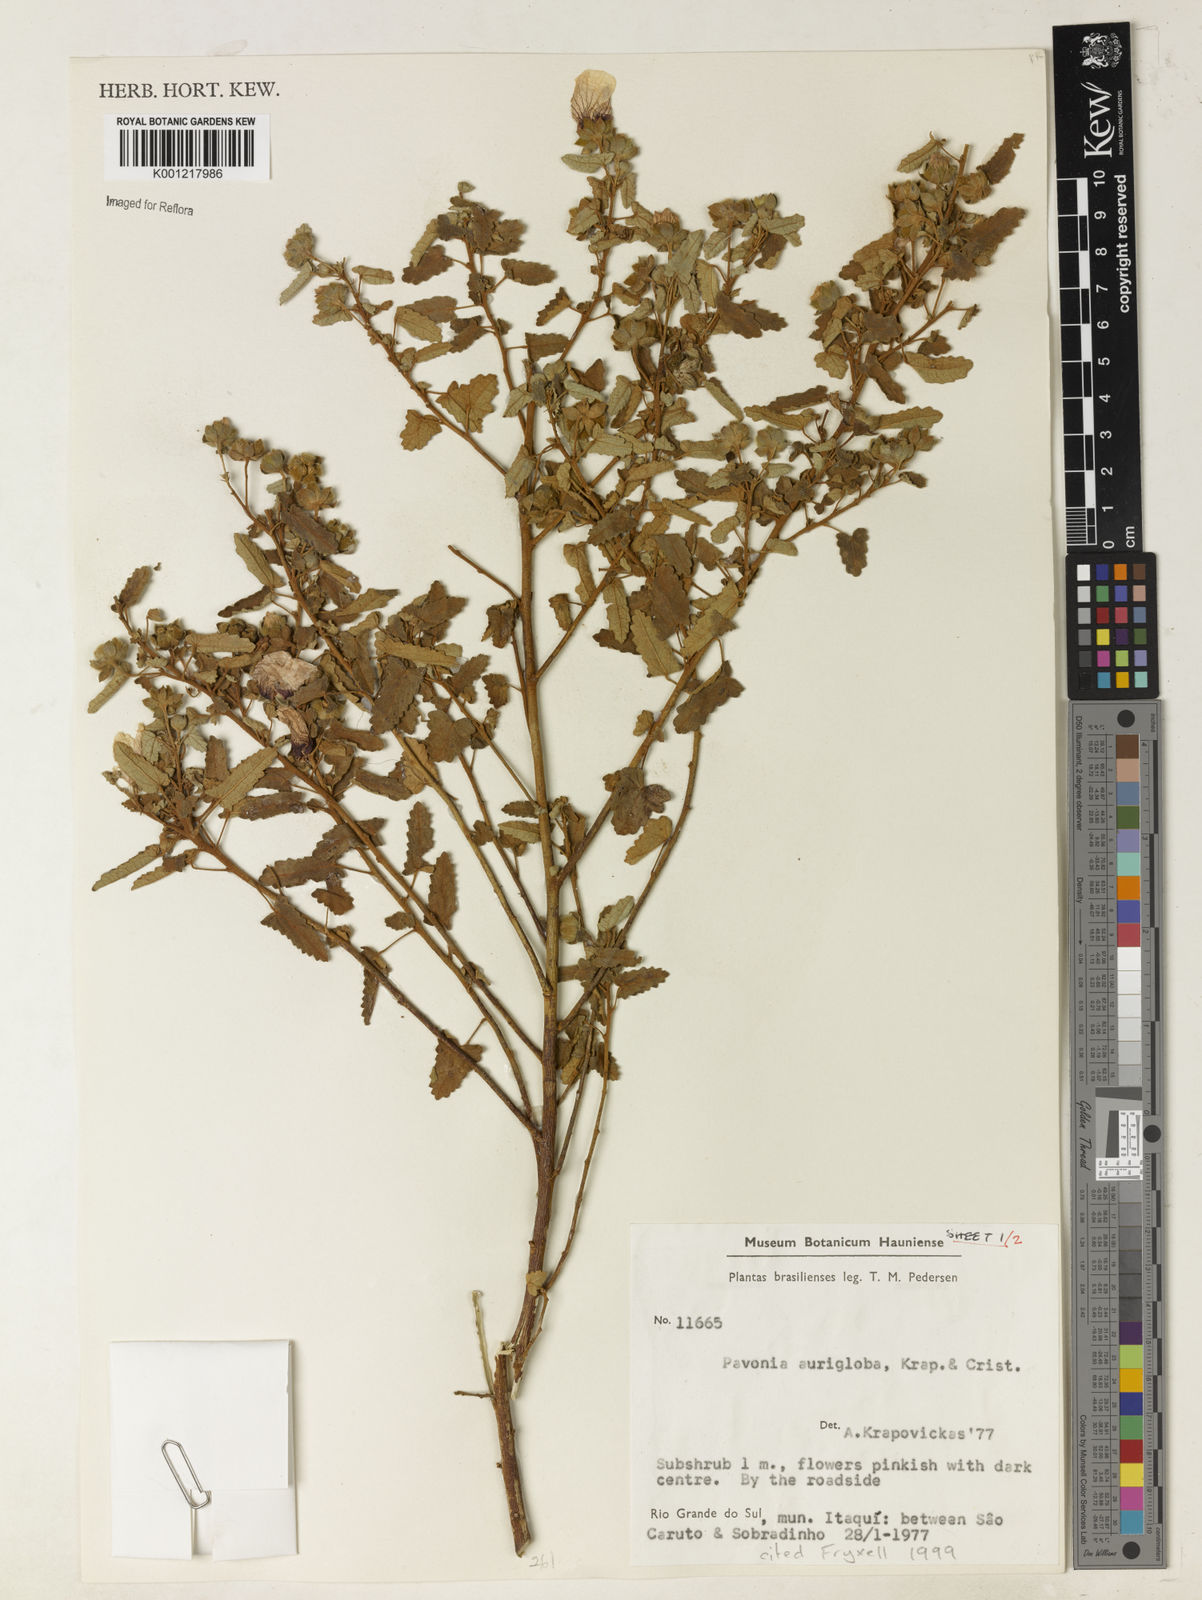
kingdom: Plantae
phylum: Tracheophyta
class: Magnoliopsida
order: Malvales
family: Malvaceae
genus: Pavonia
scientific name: Pavonia
